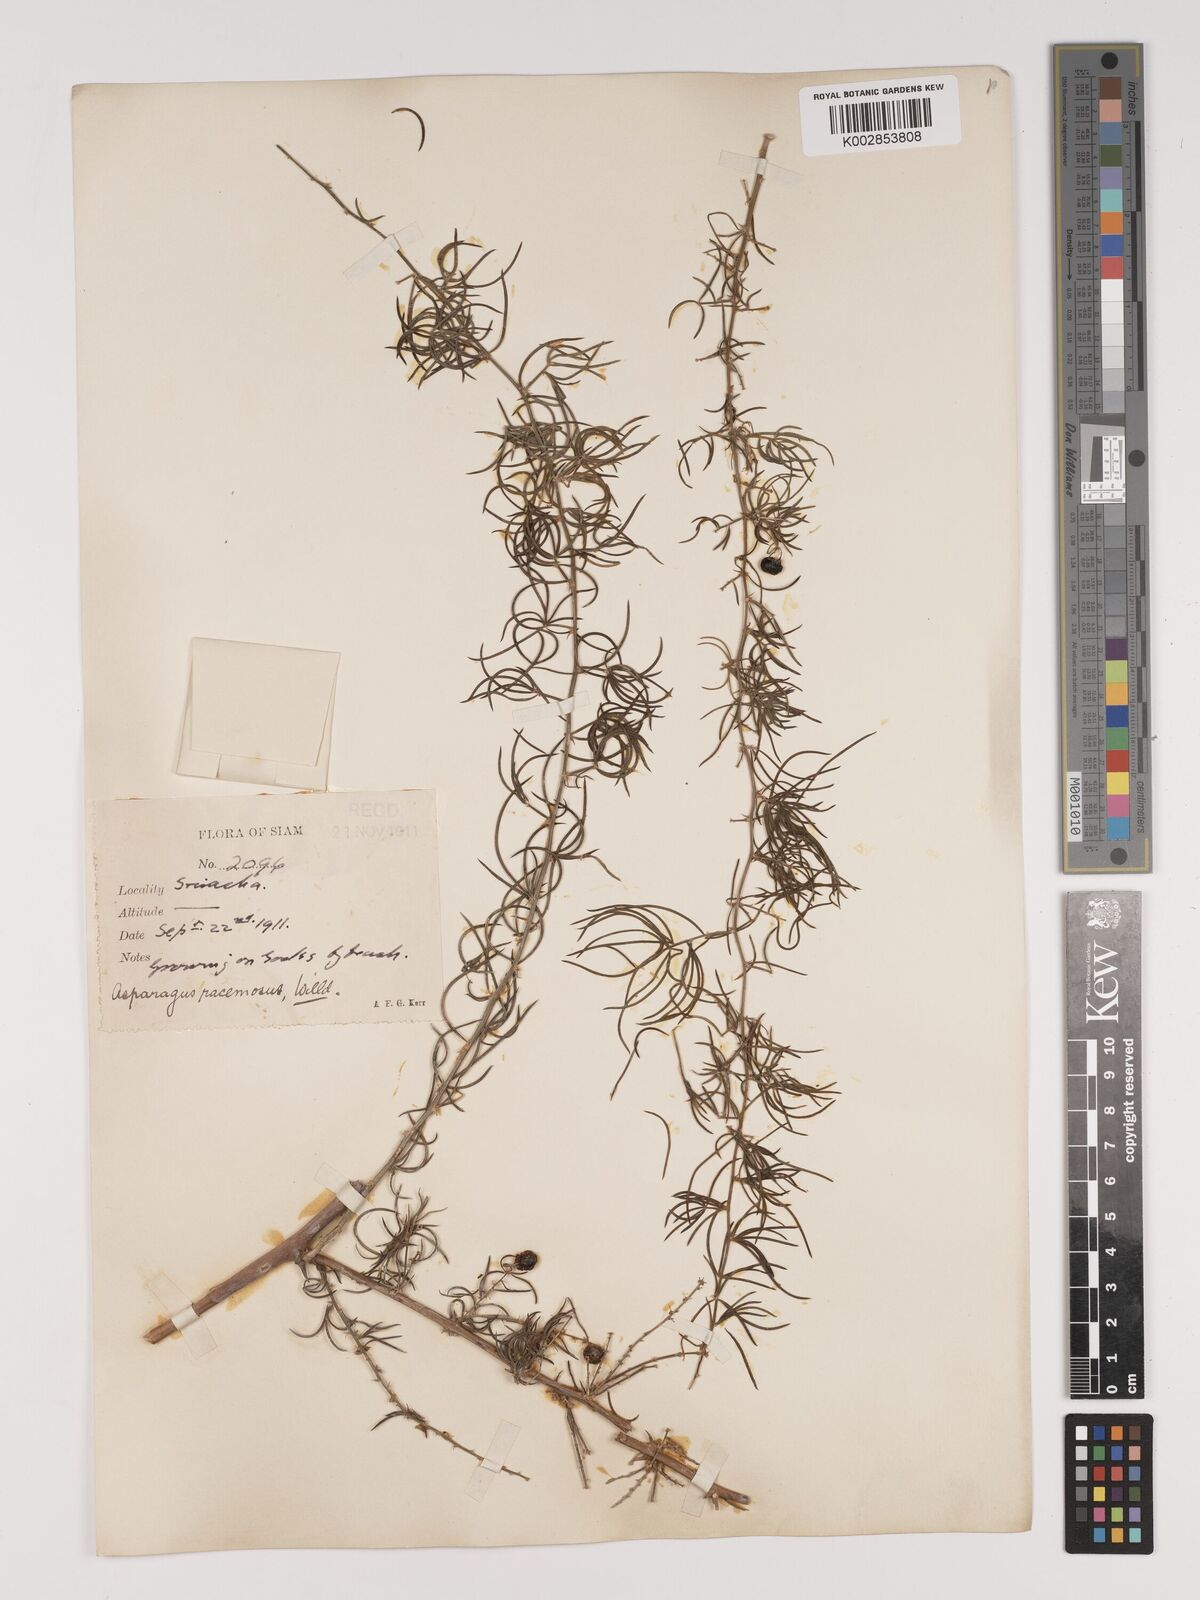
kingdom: Plantae
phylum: Tracheophyta
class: Liliopsida
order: Asparagales
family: Asparagaceae
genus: Asparagus
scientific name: Asparagus racemosus
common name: Asparagus-fern
